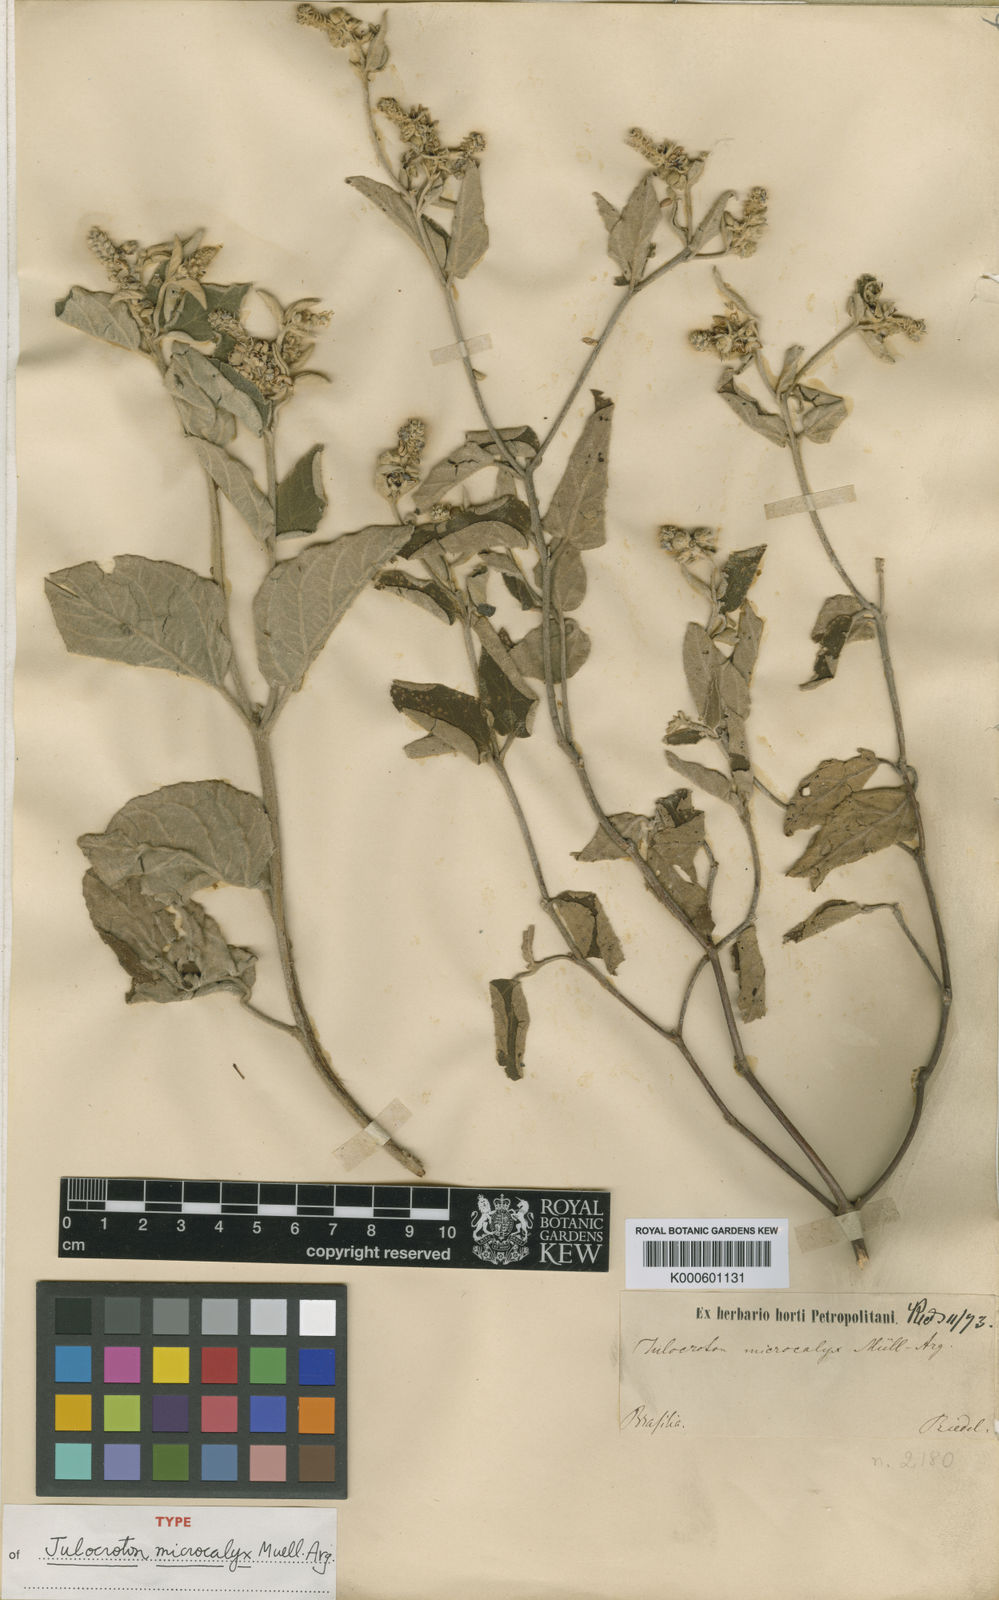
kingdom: Plantae
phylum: Tracheophyta
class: Magnoliopsida
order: Malpighiales
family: Euphorbiaceae
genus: Croton
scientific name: Croton
